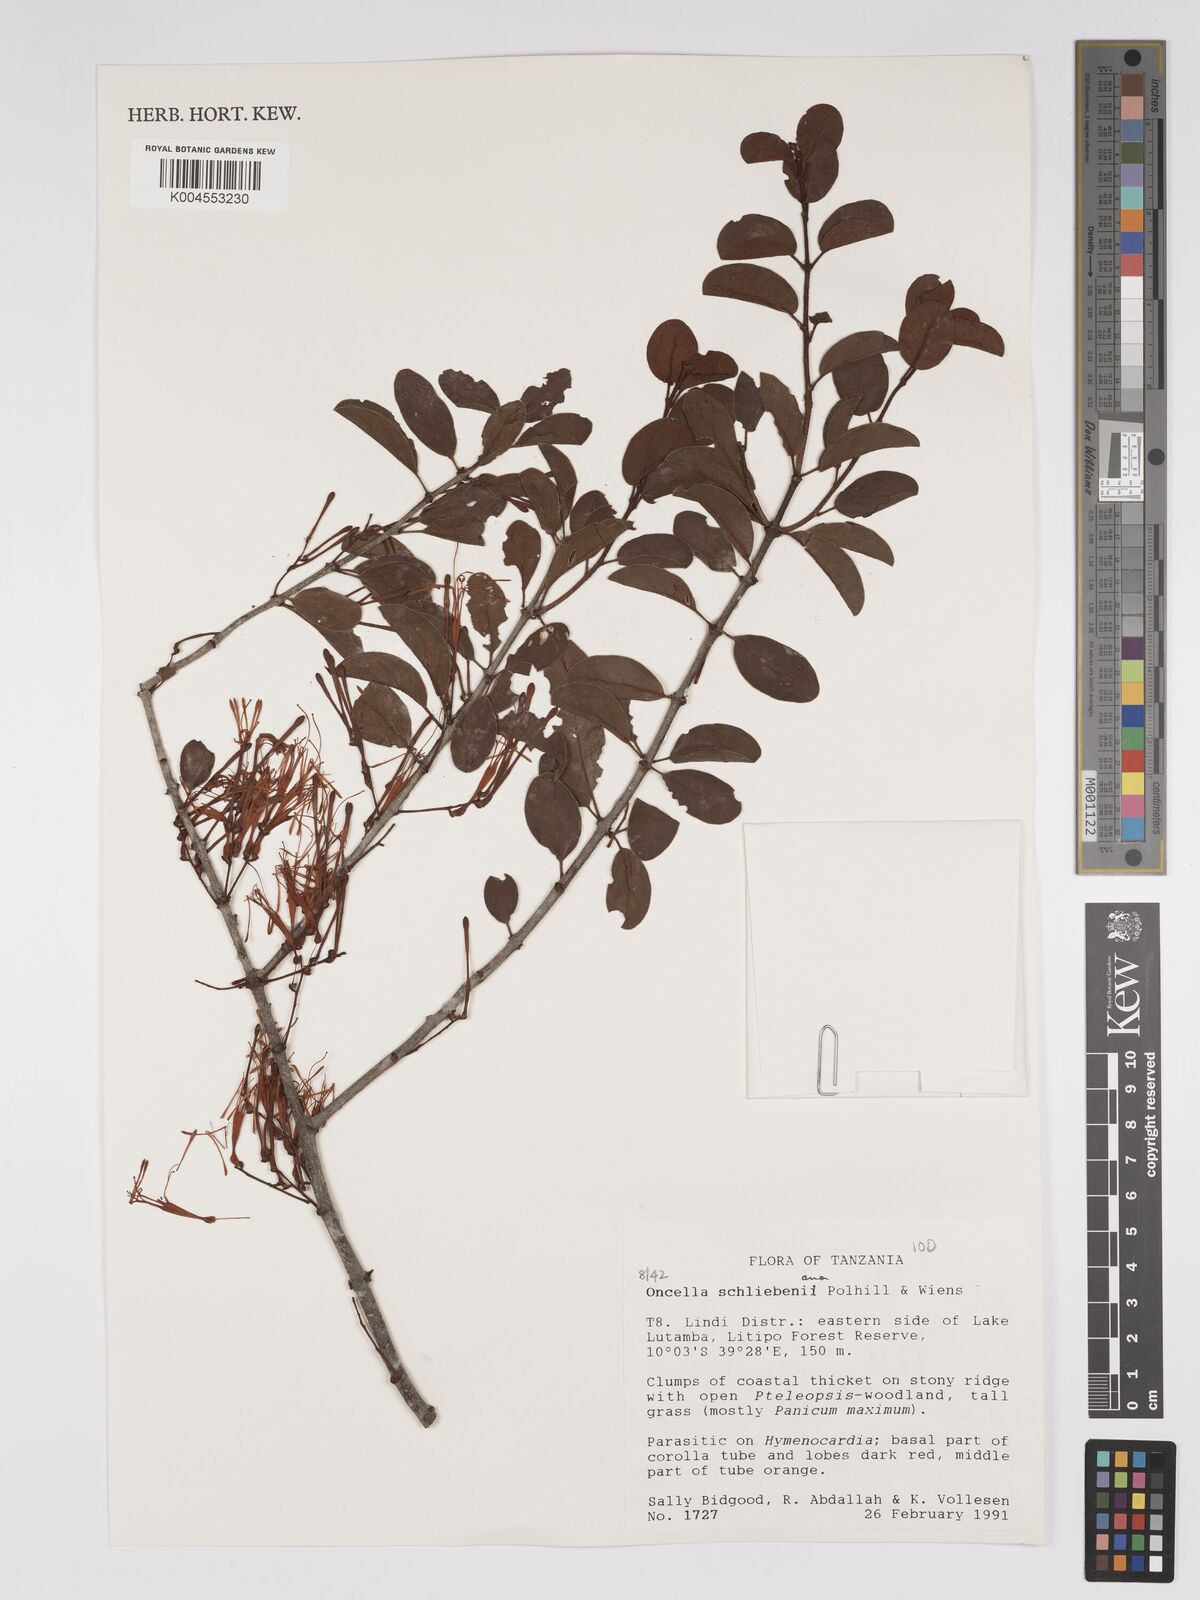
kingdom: Plantae
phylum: Tracheophyta
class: Magnoliopsida
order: Santalales
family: Loranthaceae
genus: Oncella
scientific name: Oncella schliebeniana
